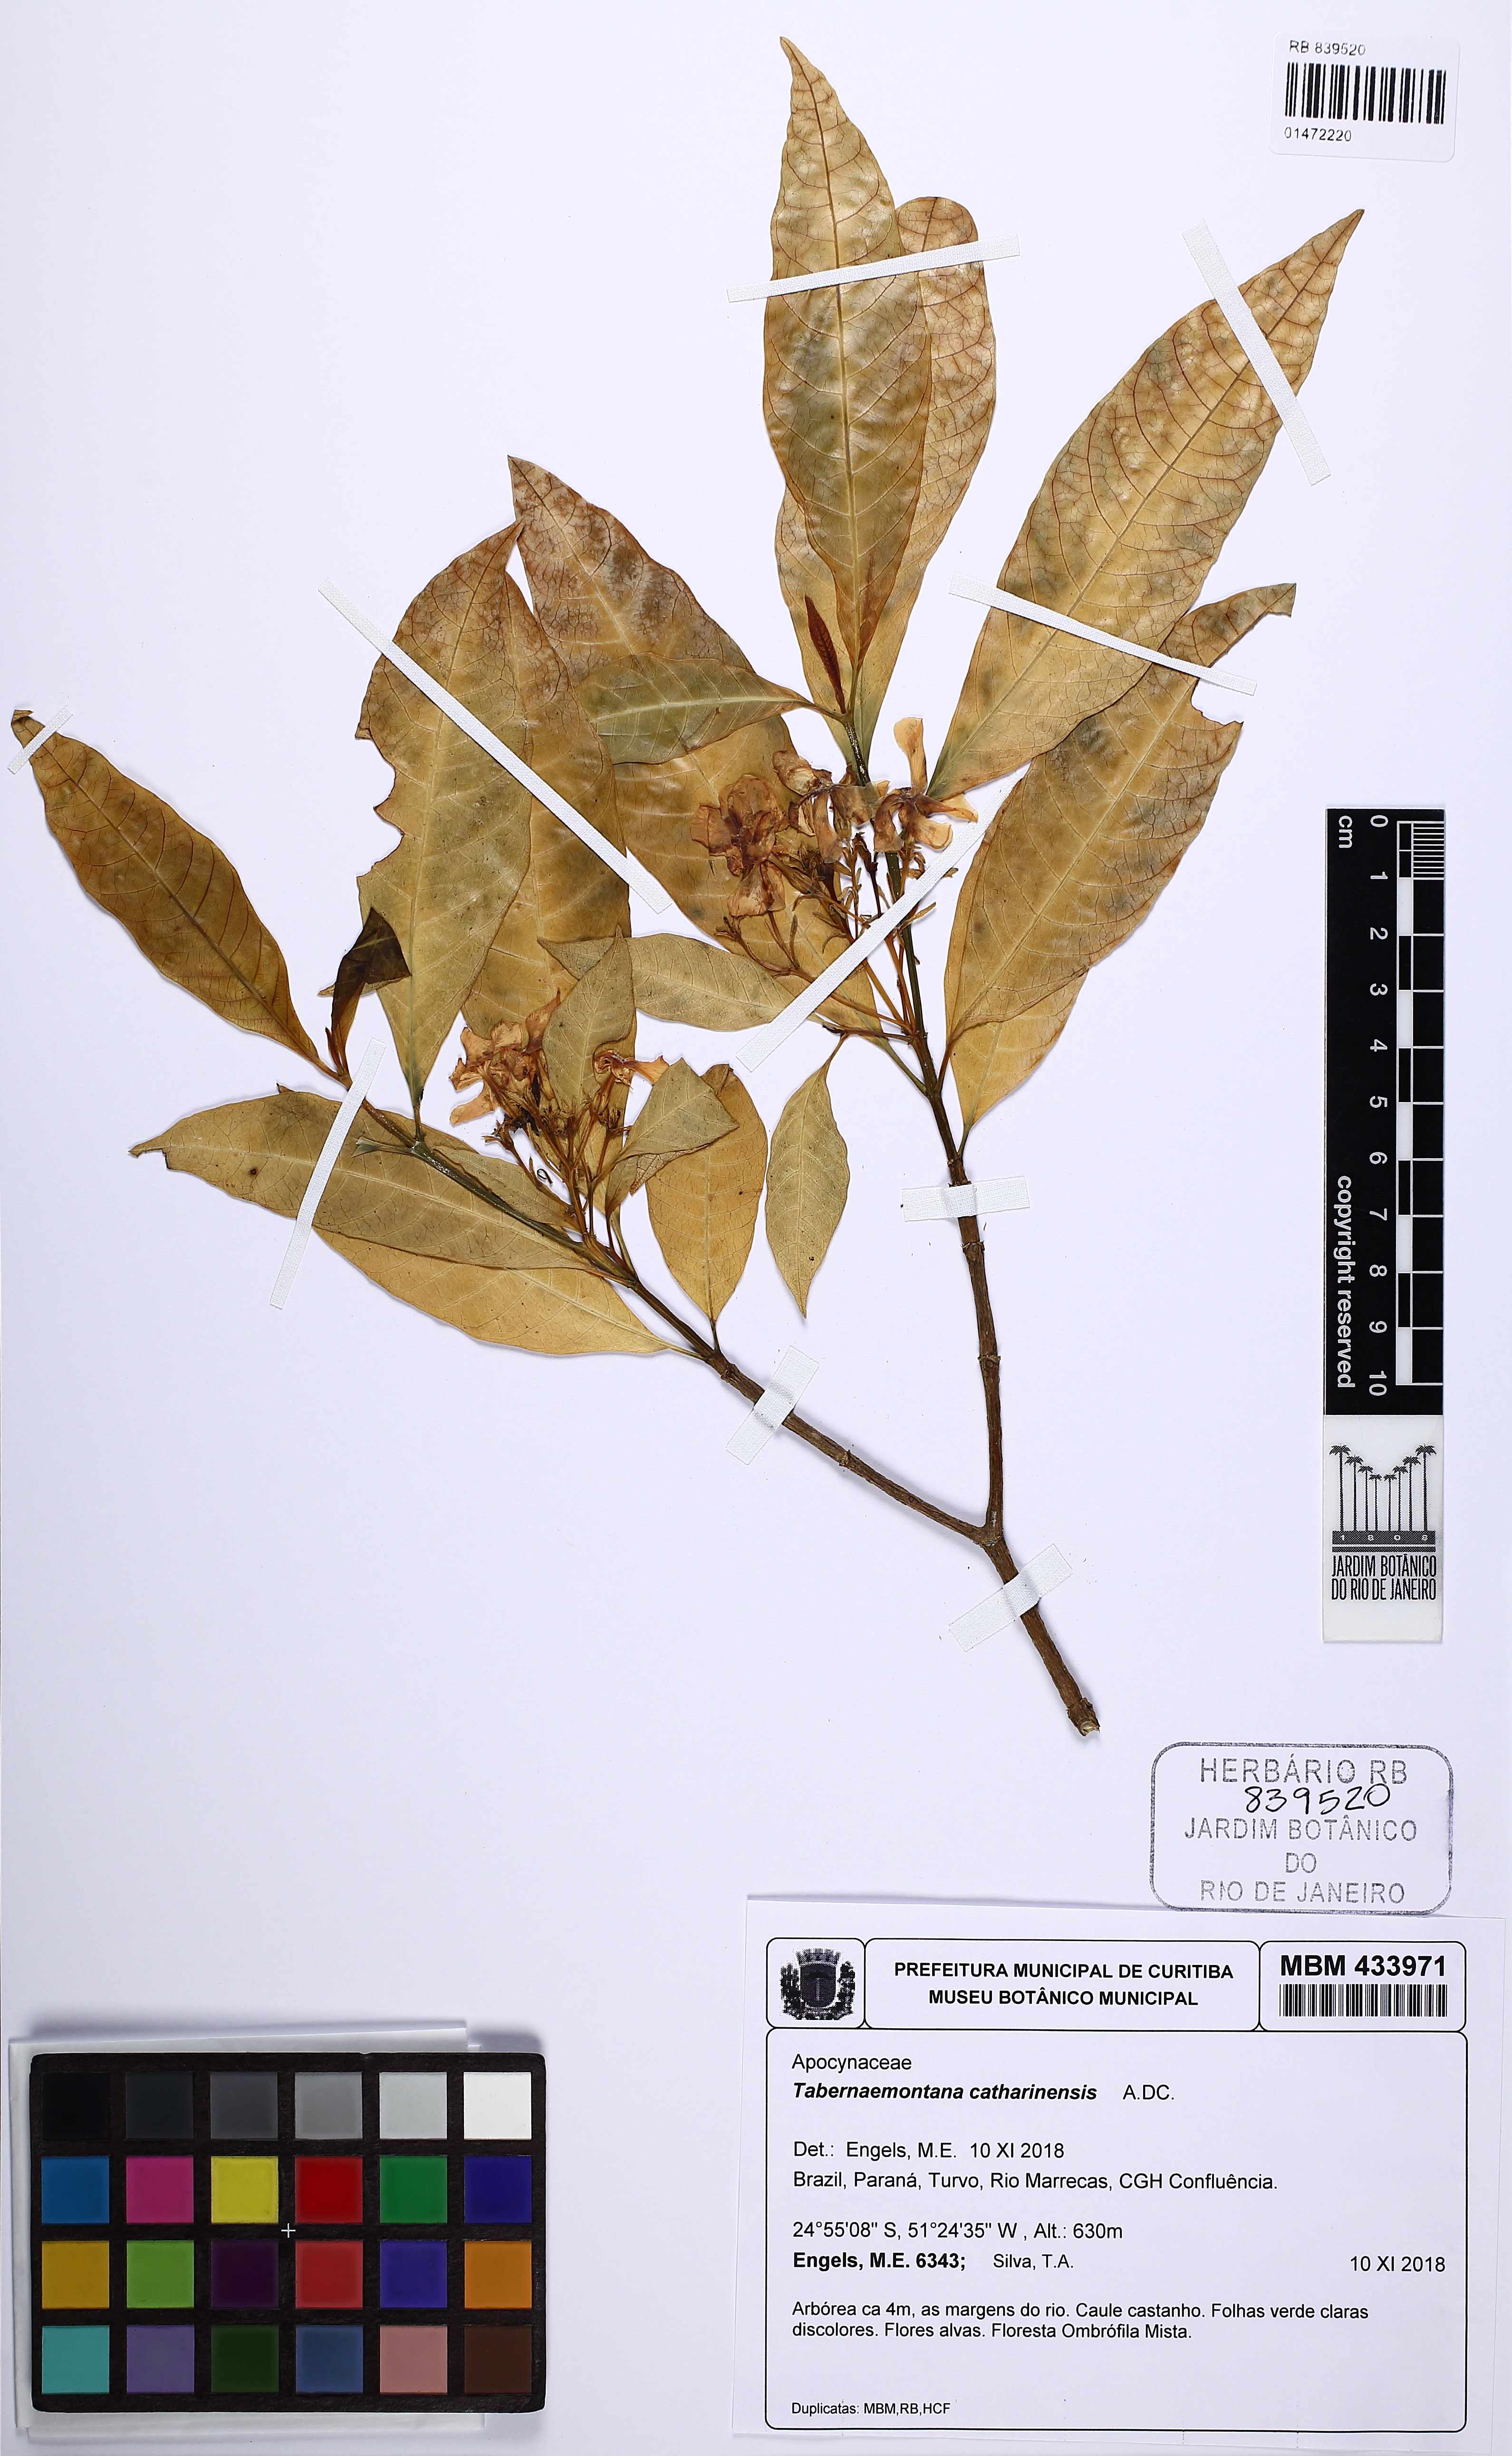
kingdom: Plantae
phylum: Tracheophyta
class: Magnoliopsida
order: Gentianales
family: Apocynaceae
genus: Tabernaemontana
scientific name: Tabernaemontana catharinensis
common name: Pinwheel-flower
